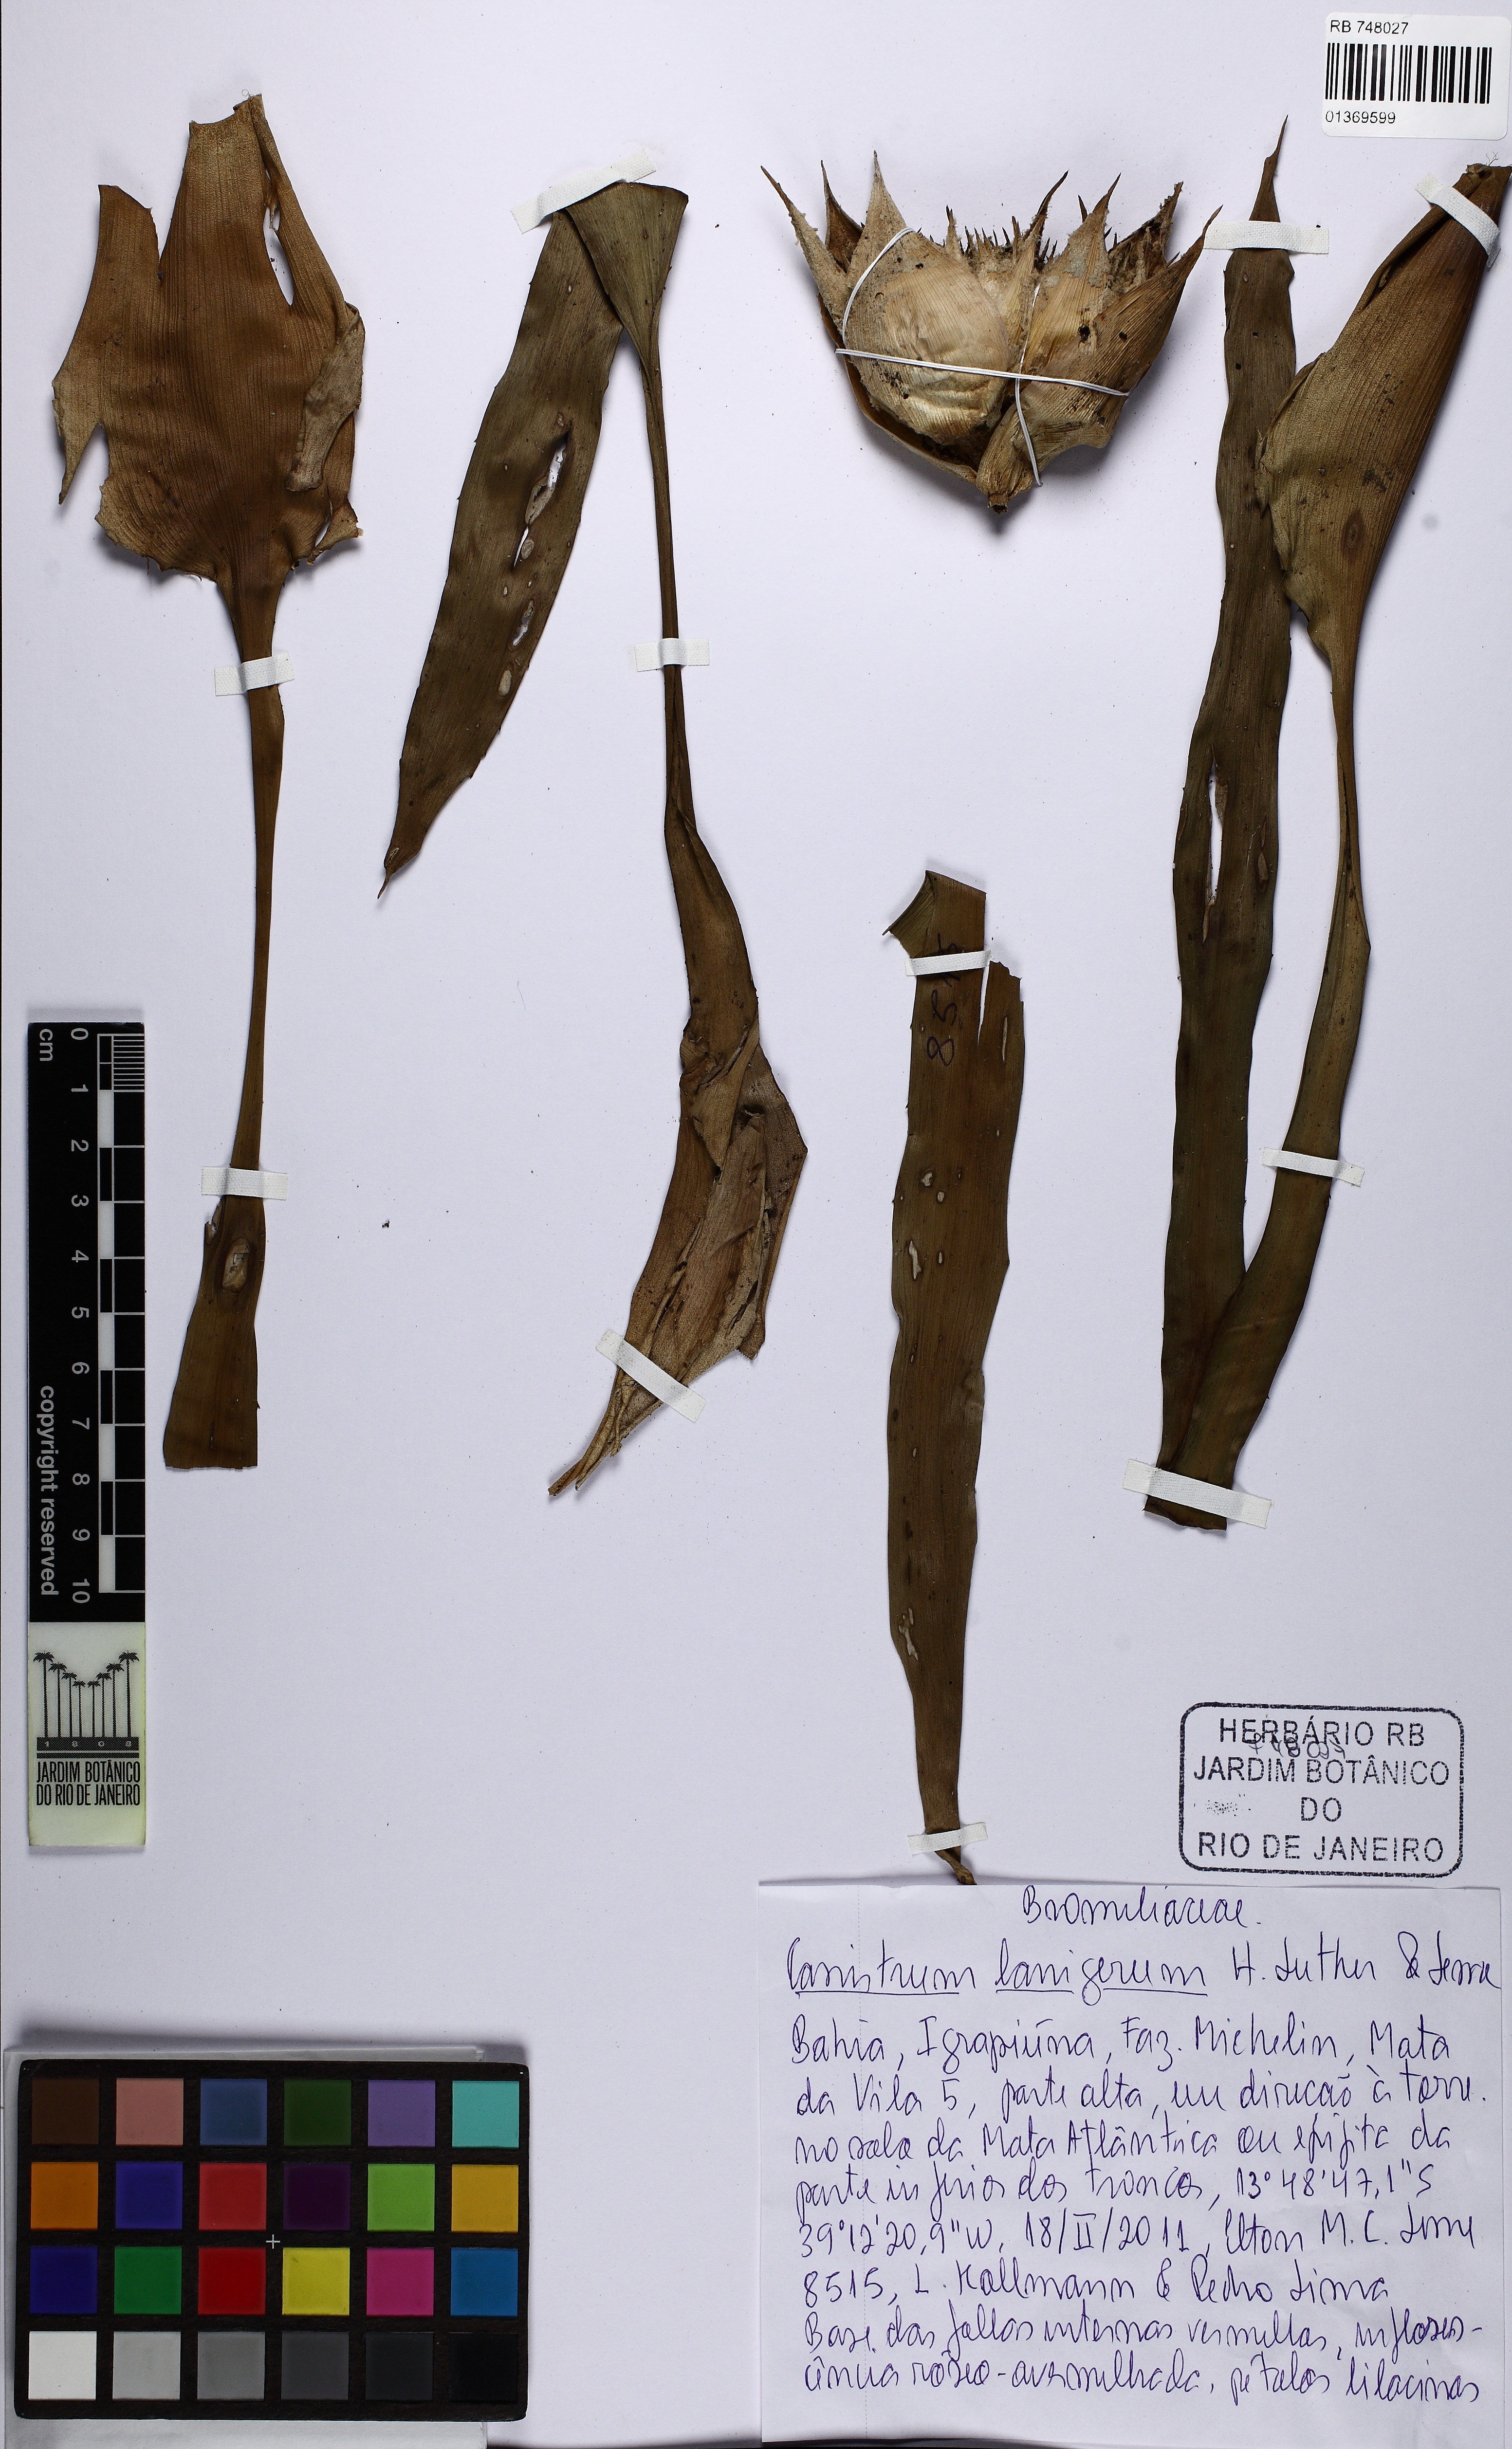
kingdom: Plantae
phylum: Tracheophyta
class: Liliopsida
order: Poales
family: Bromeliaceae
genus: Canistrum
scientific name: Canistrum lanigerum
